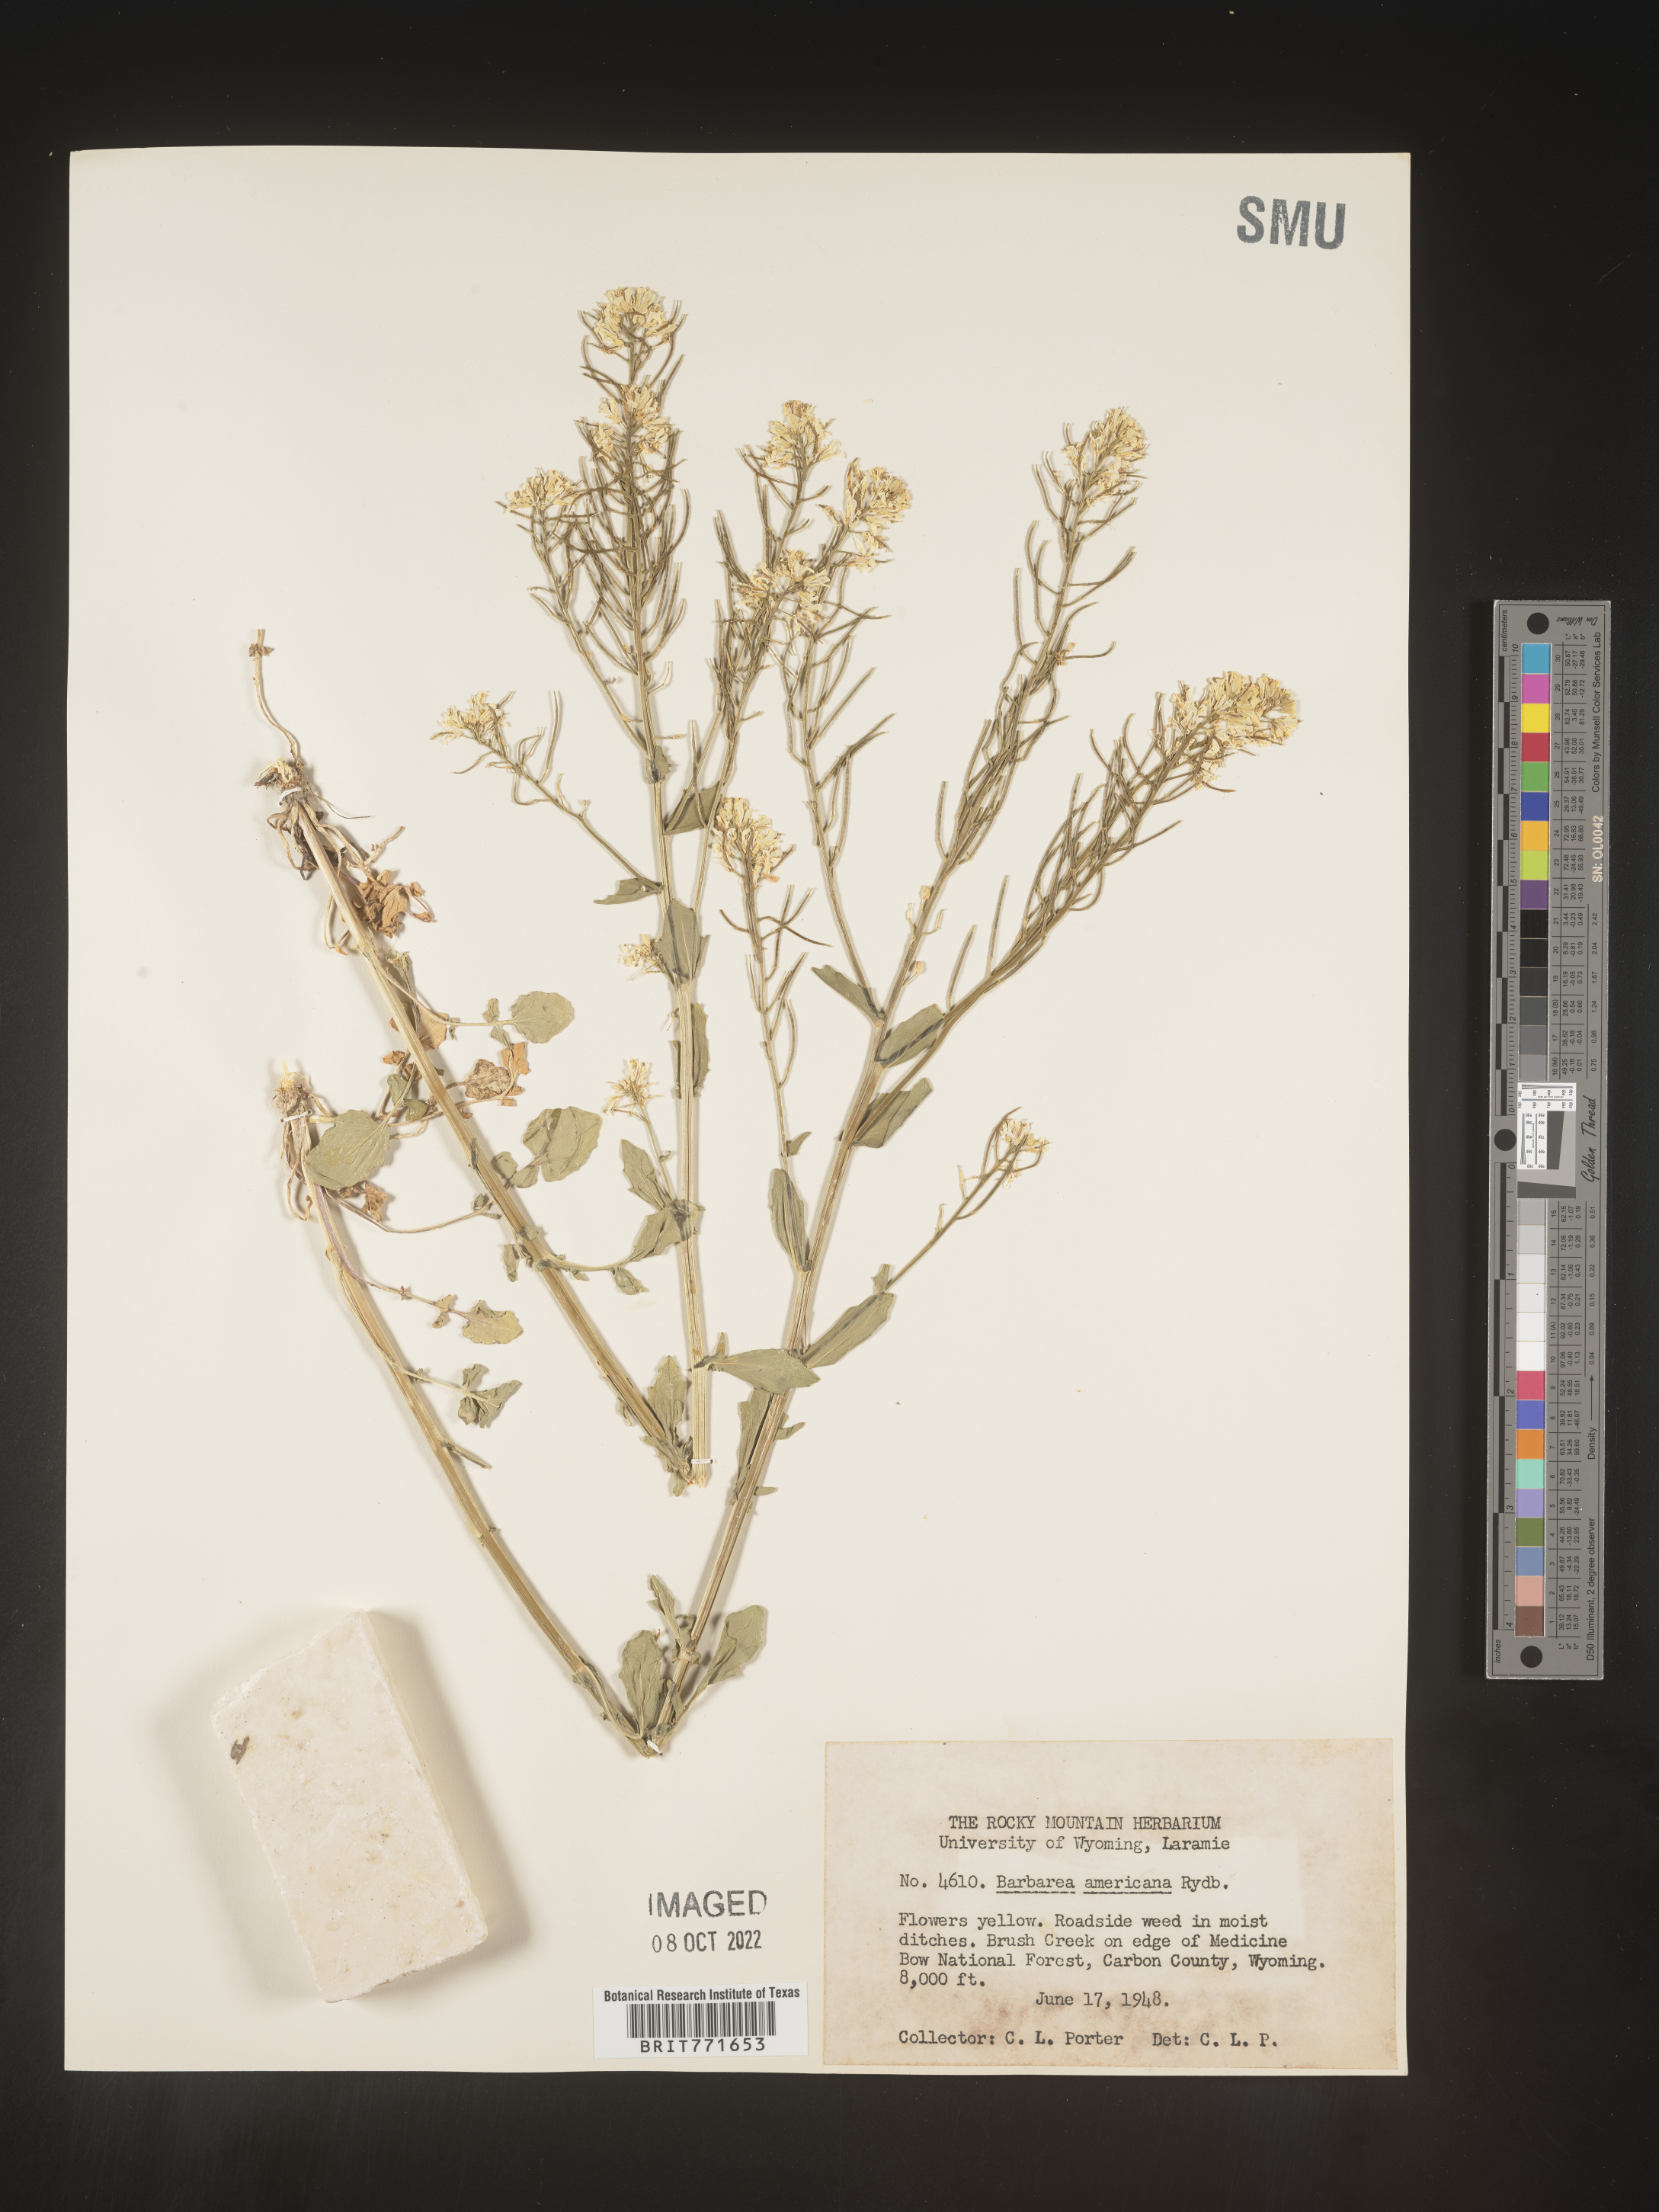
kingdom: Plantae
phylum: Tracheophyta
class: Magnoliopsida
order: Brassicales
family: Brassicaceae
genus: Barbarea
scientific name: Barbarea
